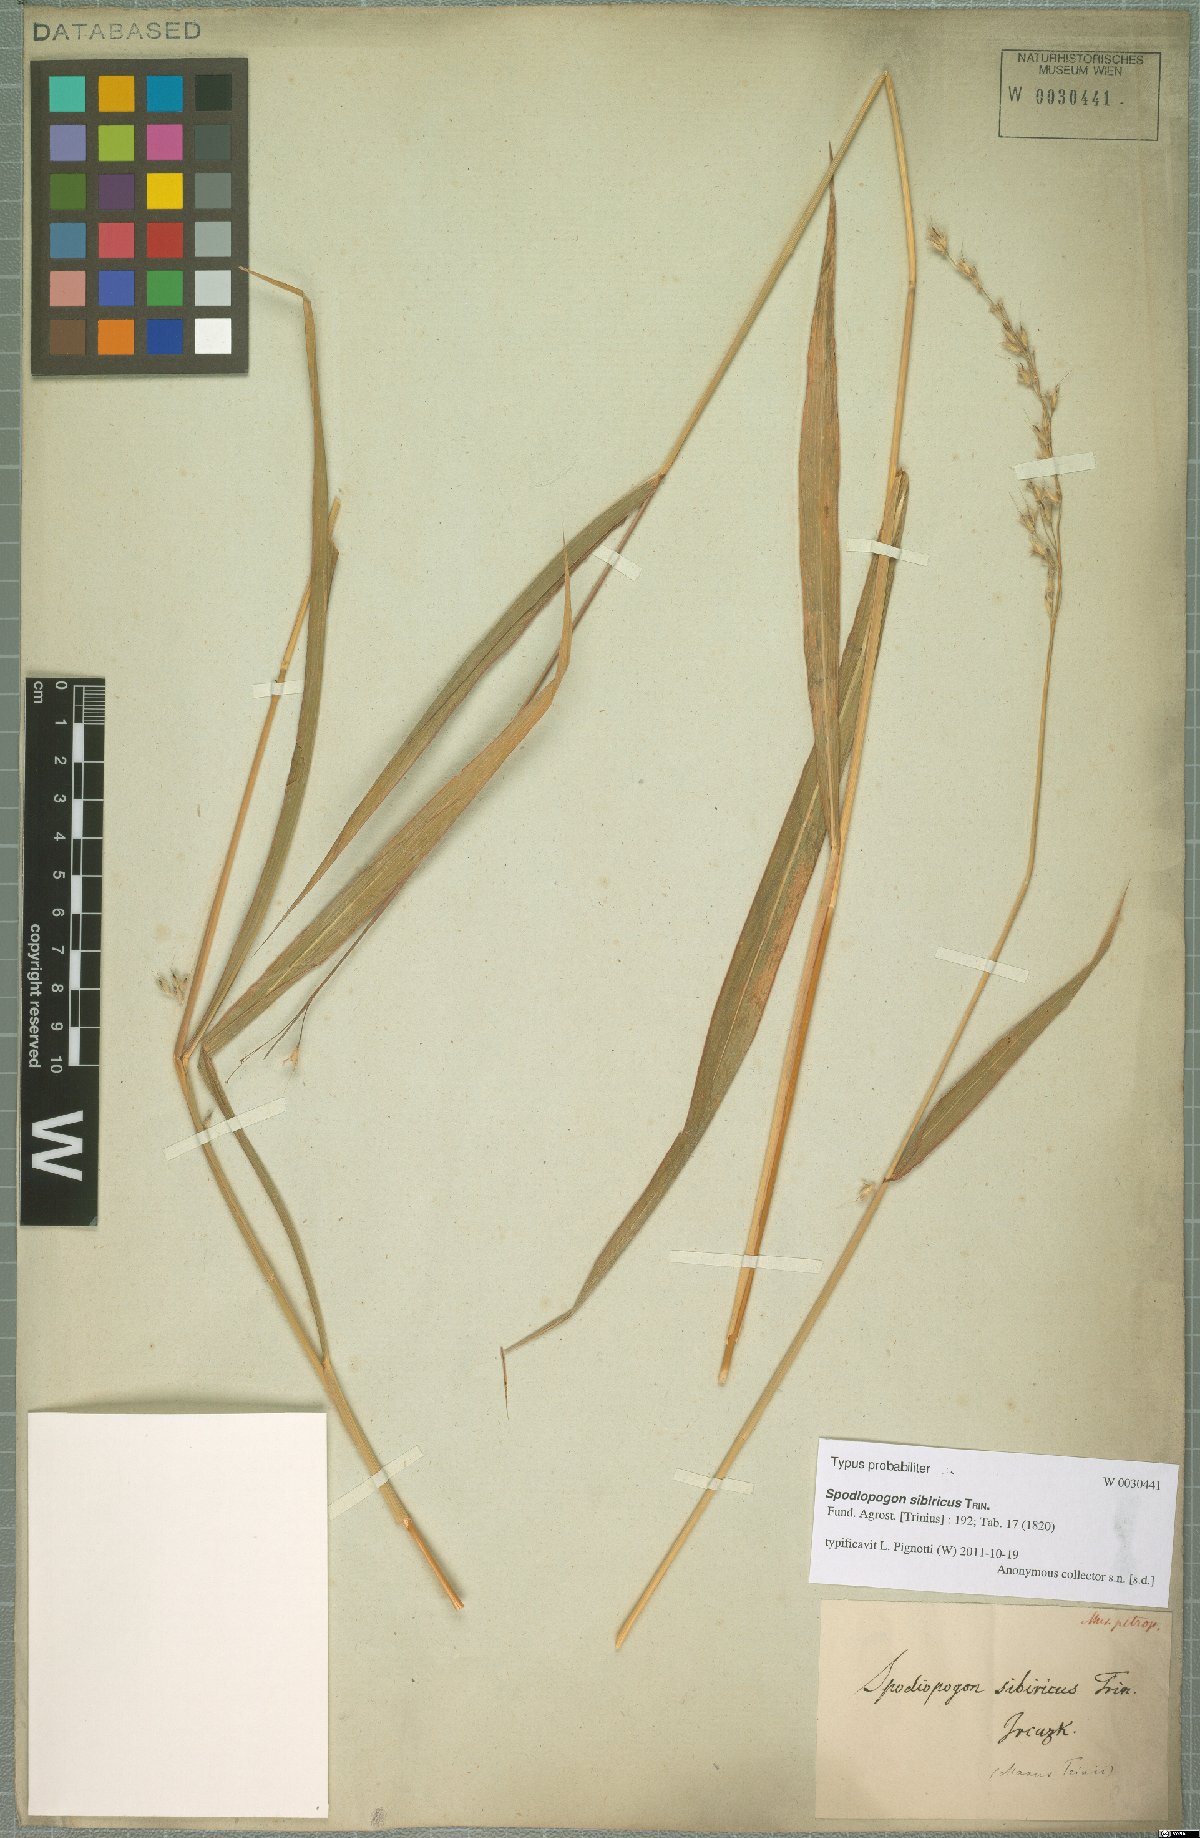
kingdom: Plantae
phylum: Tracheophyta
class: Liliopsida
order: Poales
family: Poaceae
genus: Spodiopogon
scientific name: Spodiopogon sibiricus
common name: Siberian graybeard
